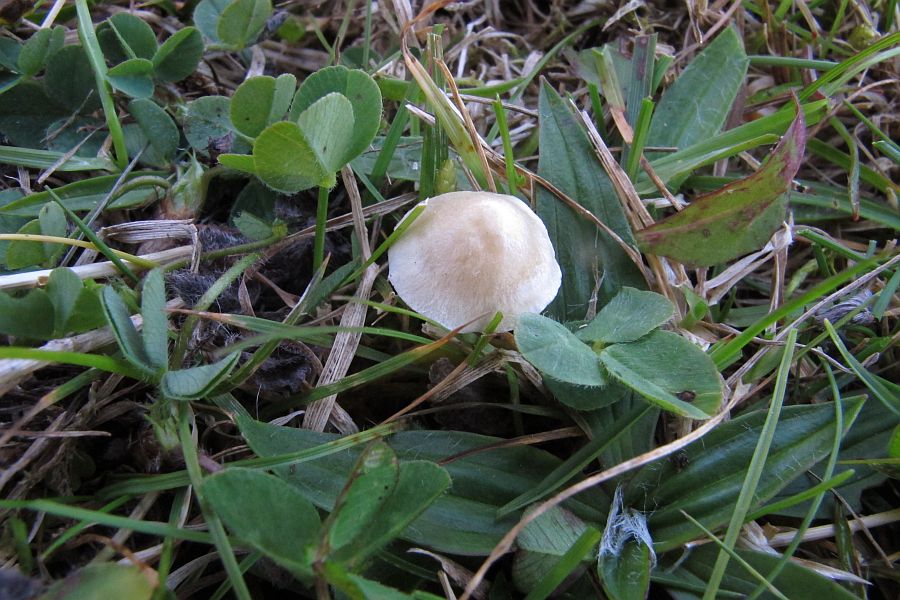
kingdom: Fungi
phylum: Basidiomycota
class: Agaricomycetes
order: Agaricales
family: Entolomataceae
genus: Entoloma
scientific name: Entoloma sericellum
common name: silkehvid rødblad
